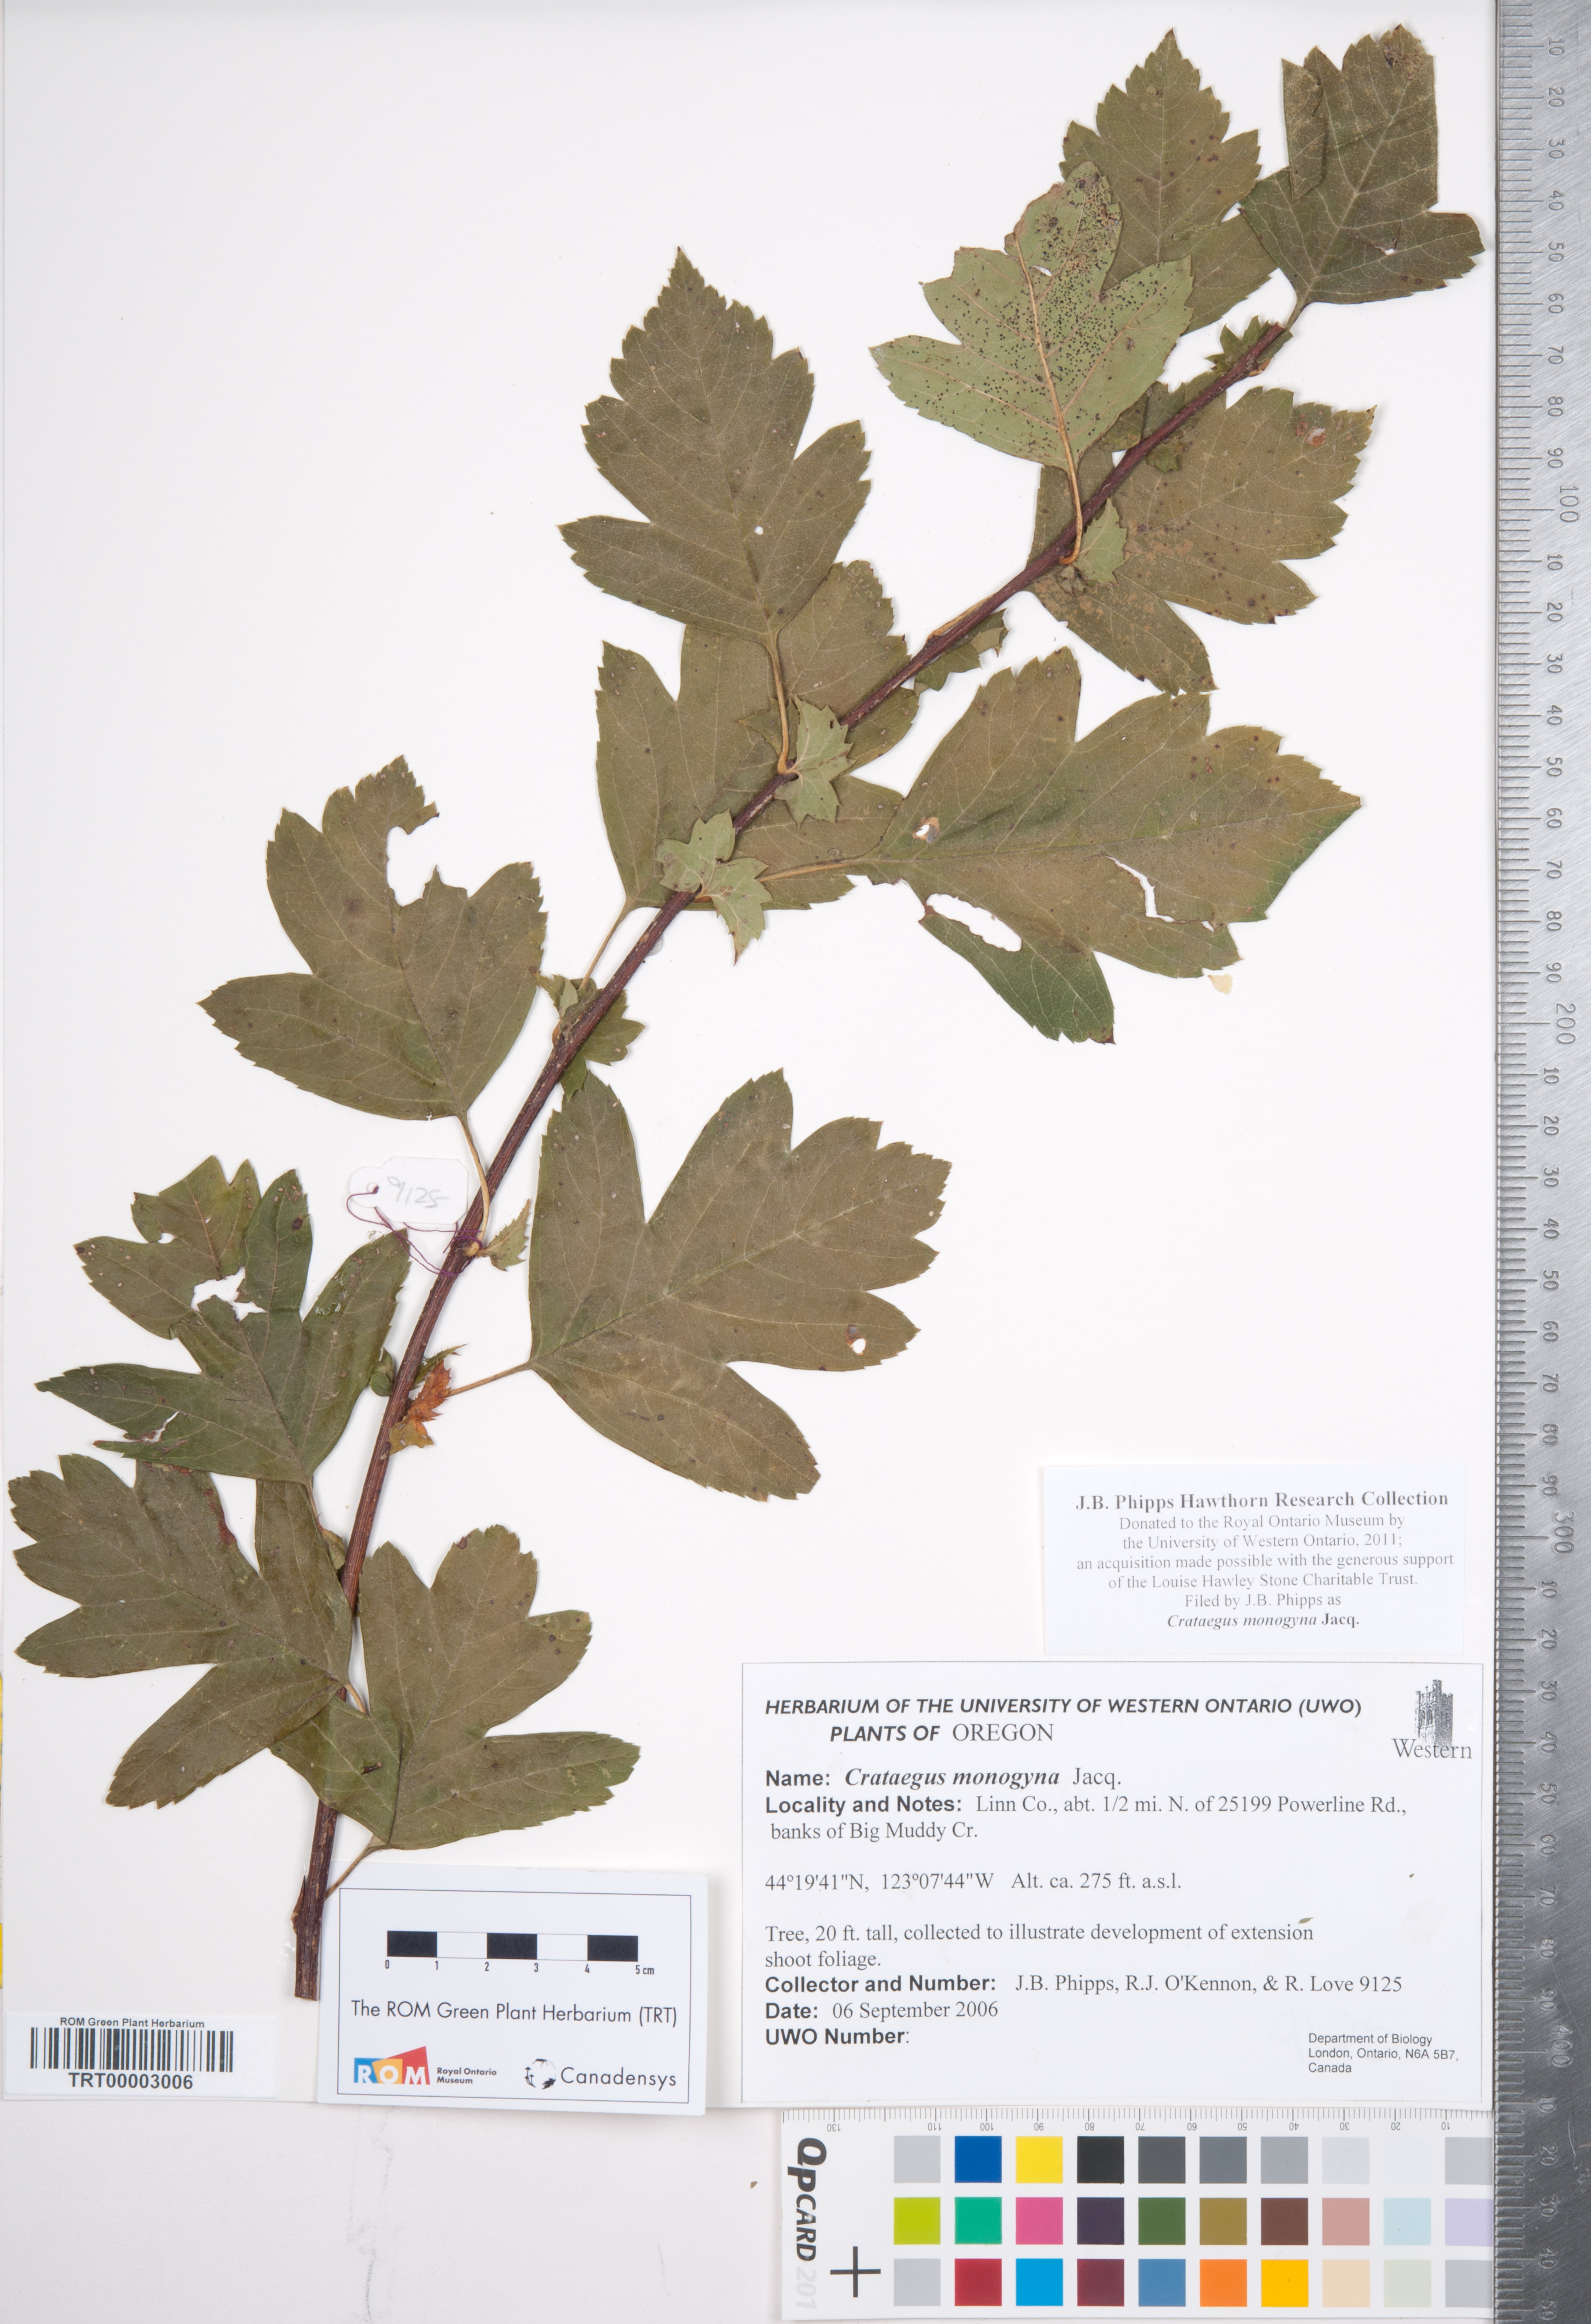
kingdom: Plantae
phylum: Tracheophyta
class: Magnoliopsida
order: Rosales
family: Rosaceae
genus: Crataegus
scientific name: Crataegus monogyna
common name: Hawthorn
